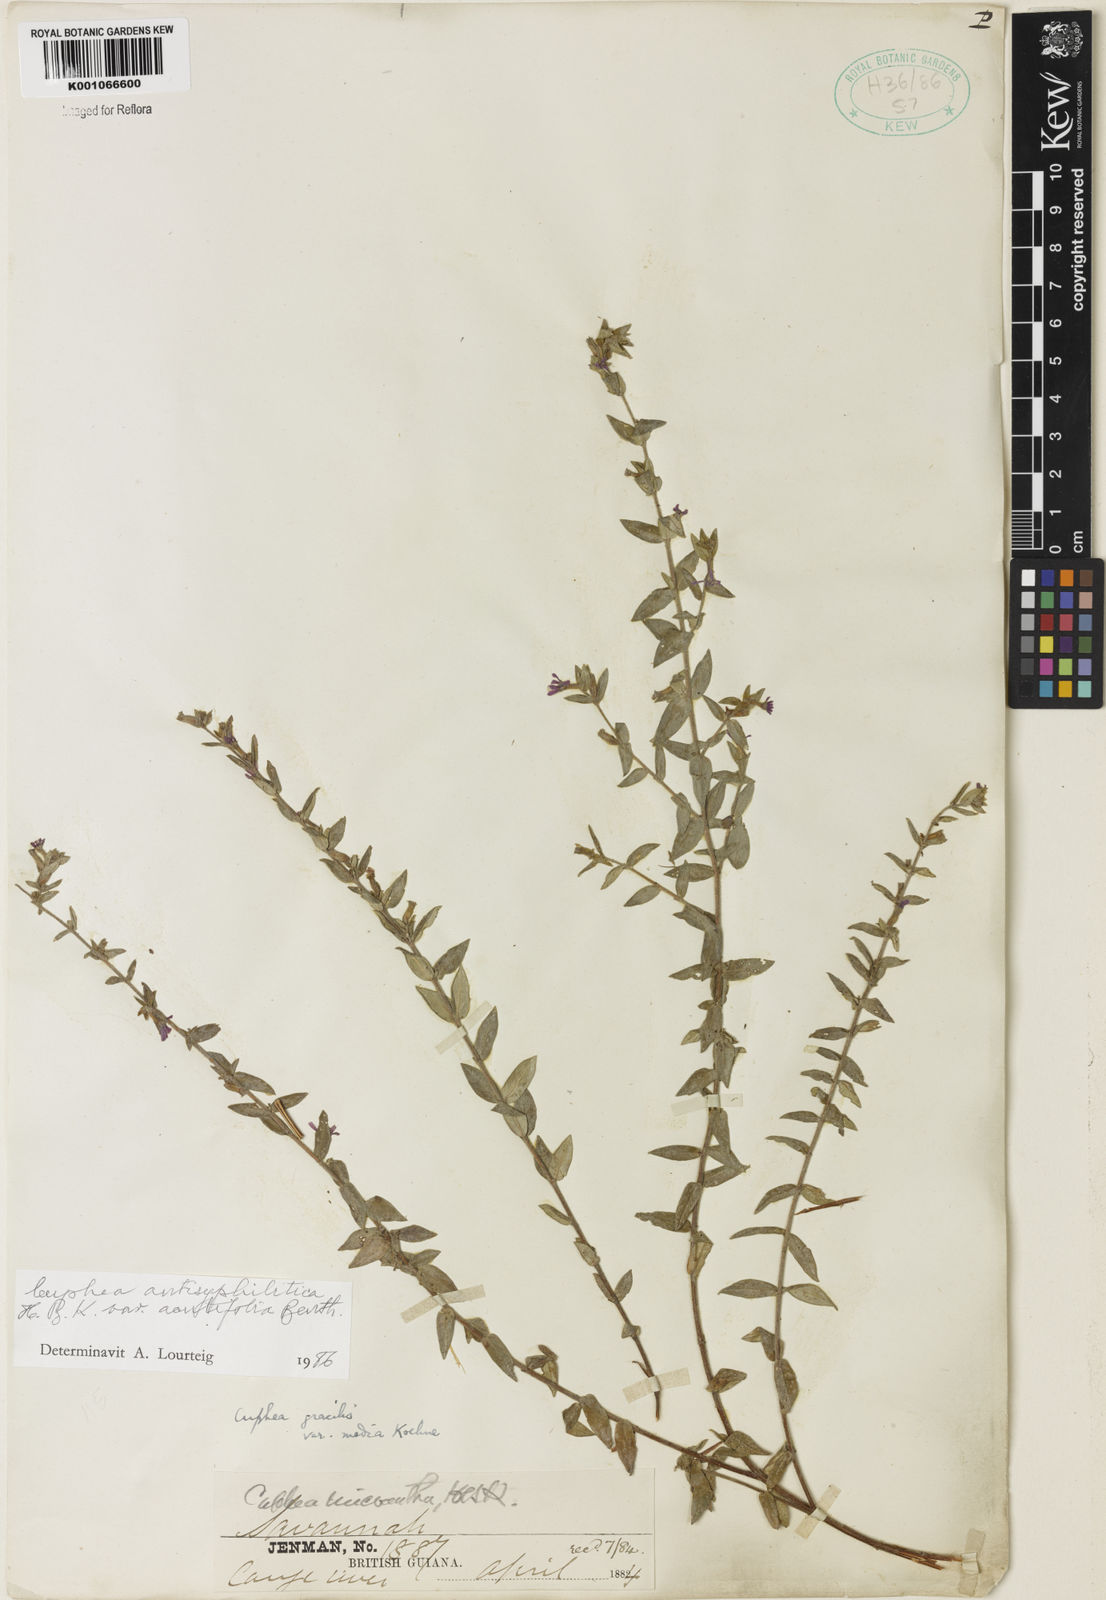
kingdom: Plantae
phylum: Tracheophyta
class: Magnoliopsida
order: Myrtales
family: Lythraceae
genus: Cuphea
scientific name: Cuphea antisyphilitica
